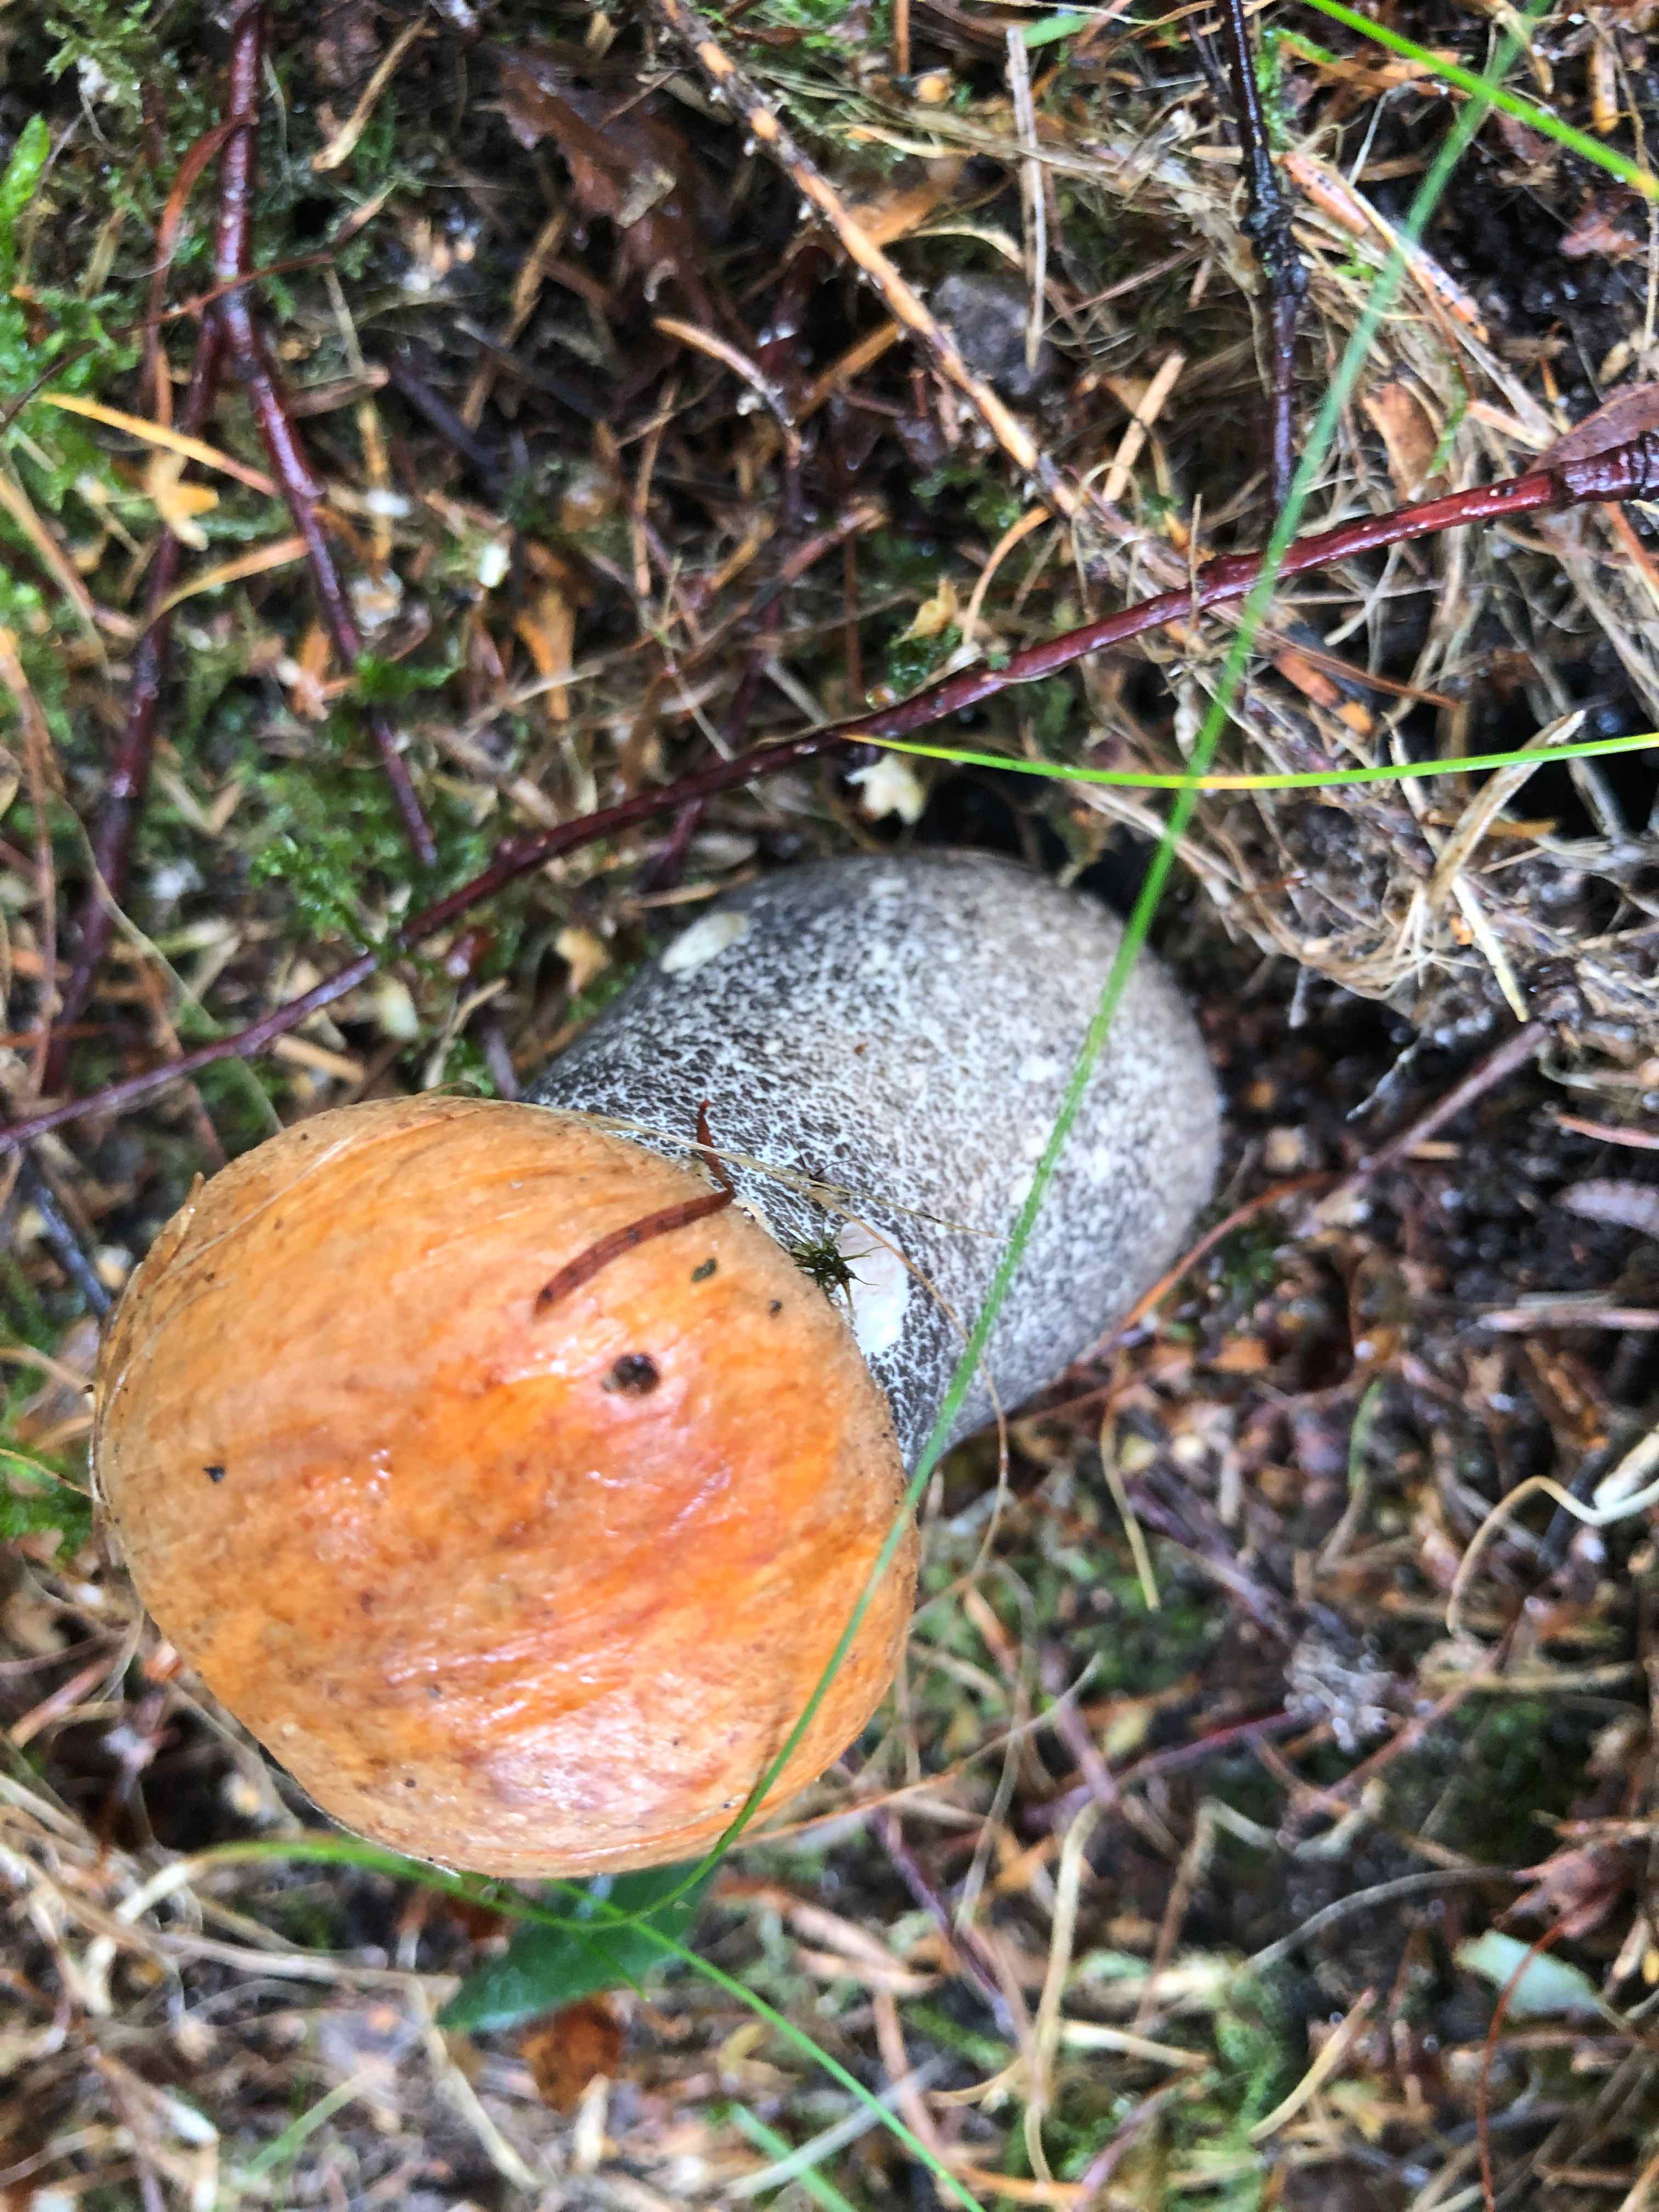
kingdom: Fungi
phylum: Basidiomycota
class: Agaricomycetes
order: Boletales
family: Boletaceae
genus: Leccinum
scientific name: Leccinum versipelle
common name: orange skælrørhat
